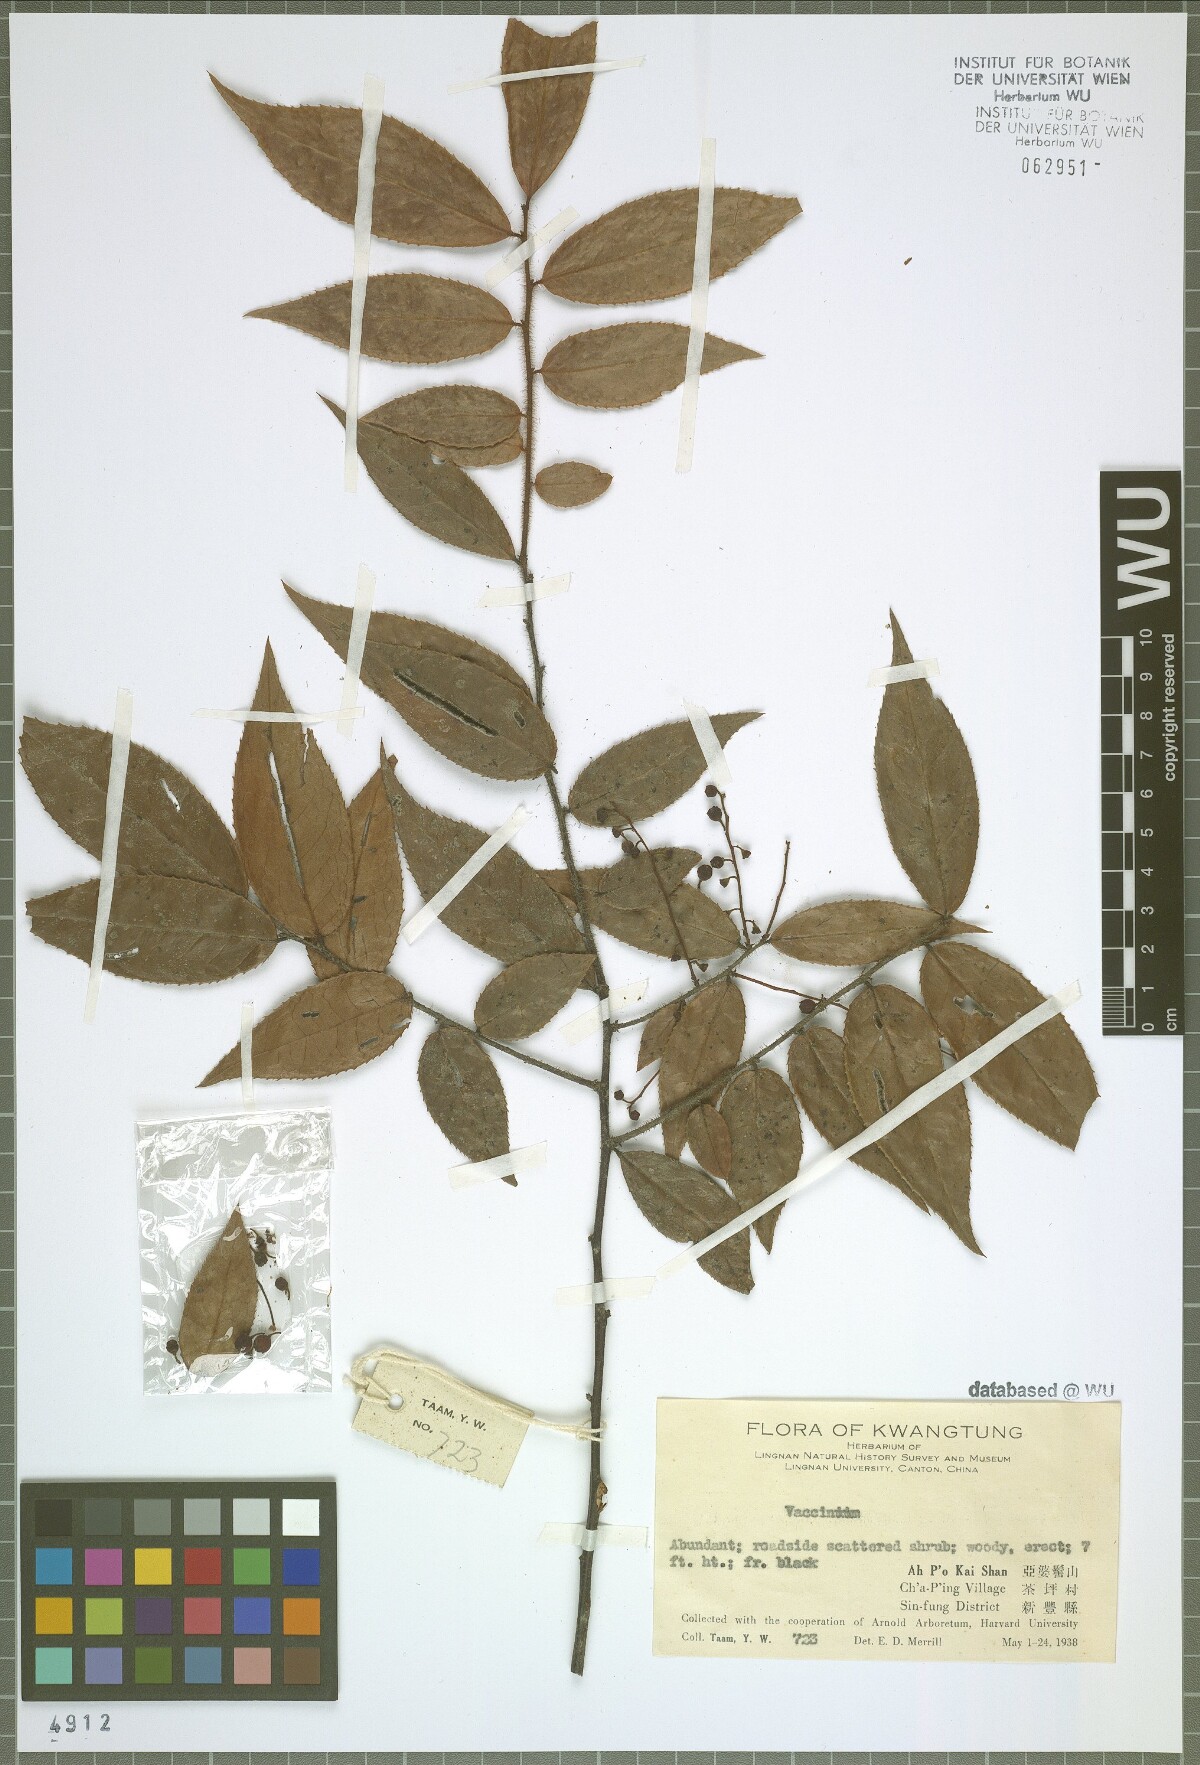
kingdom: Plantae
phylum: Tracheophyta
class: Magnoliopsida
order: Ericales
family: Ericaceae
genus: Vaccinium
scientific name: Vaccinium
